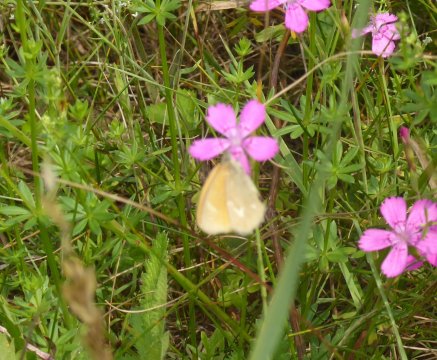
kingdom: Animalia
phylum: Arthropoda
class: Insecta
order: Lepidoptera
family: Nymphalidae
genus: Coenonympha
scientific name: Coenonympha tullia
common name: Large Heath
